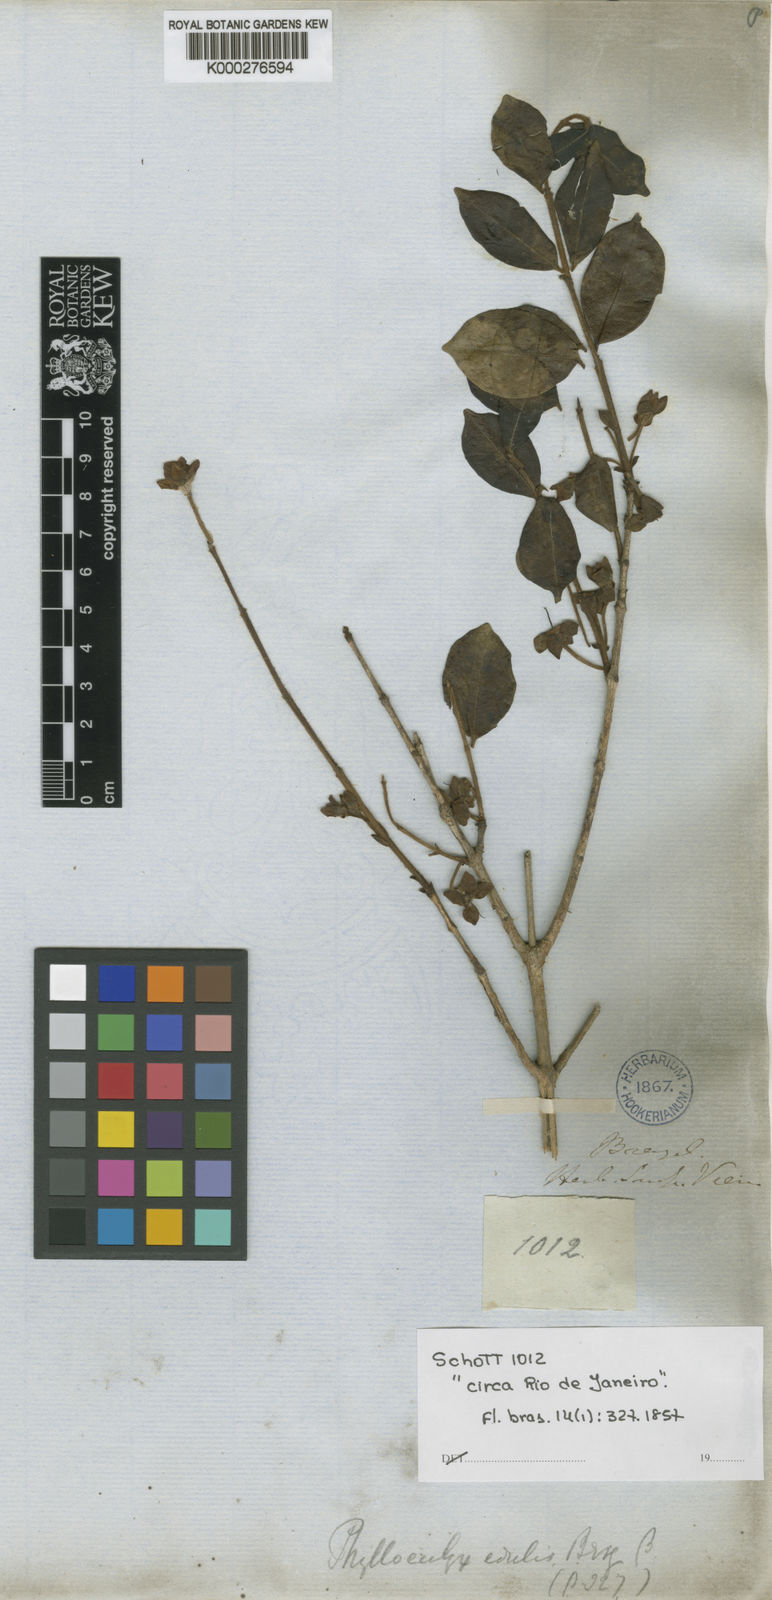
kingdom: Plantae
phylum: Tracheophyta
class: Magnoliopsida
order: Myrtales
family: Myrtaceae
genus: Eugenia
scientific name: Eugenia selloi
